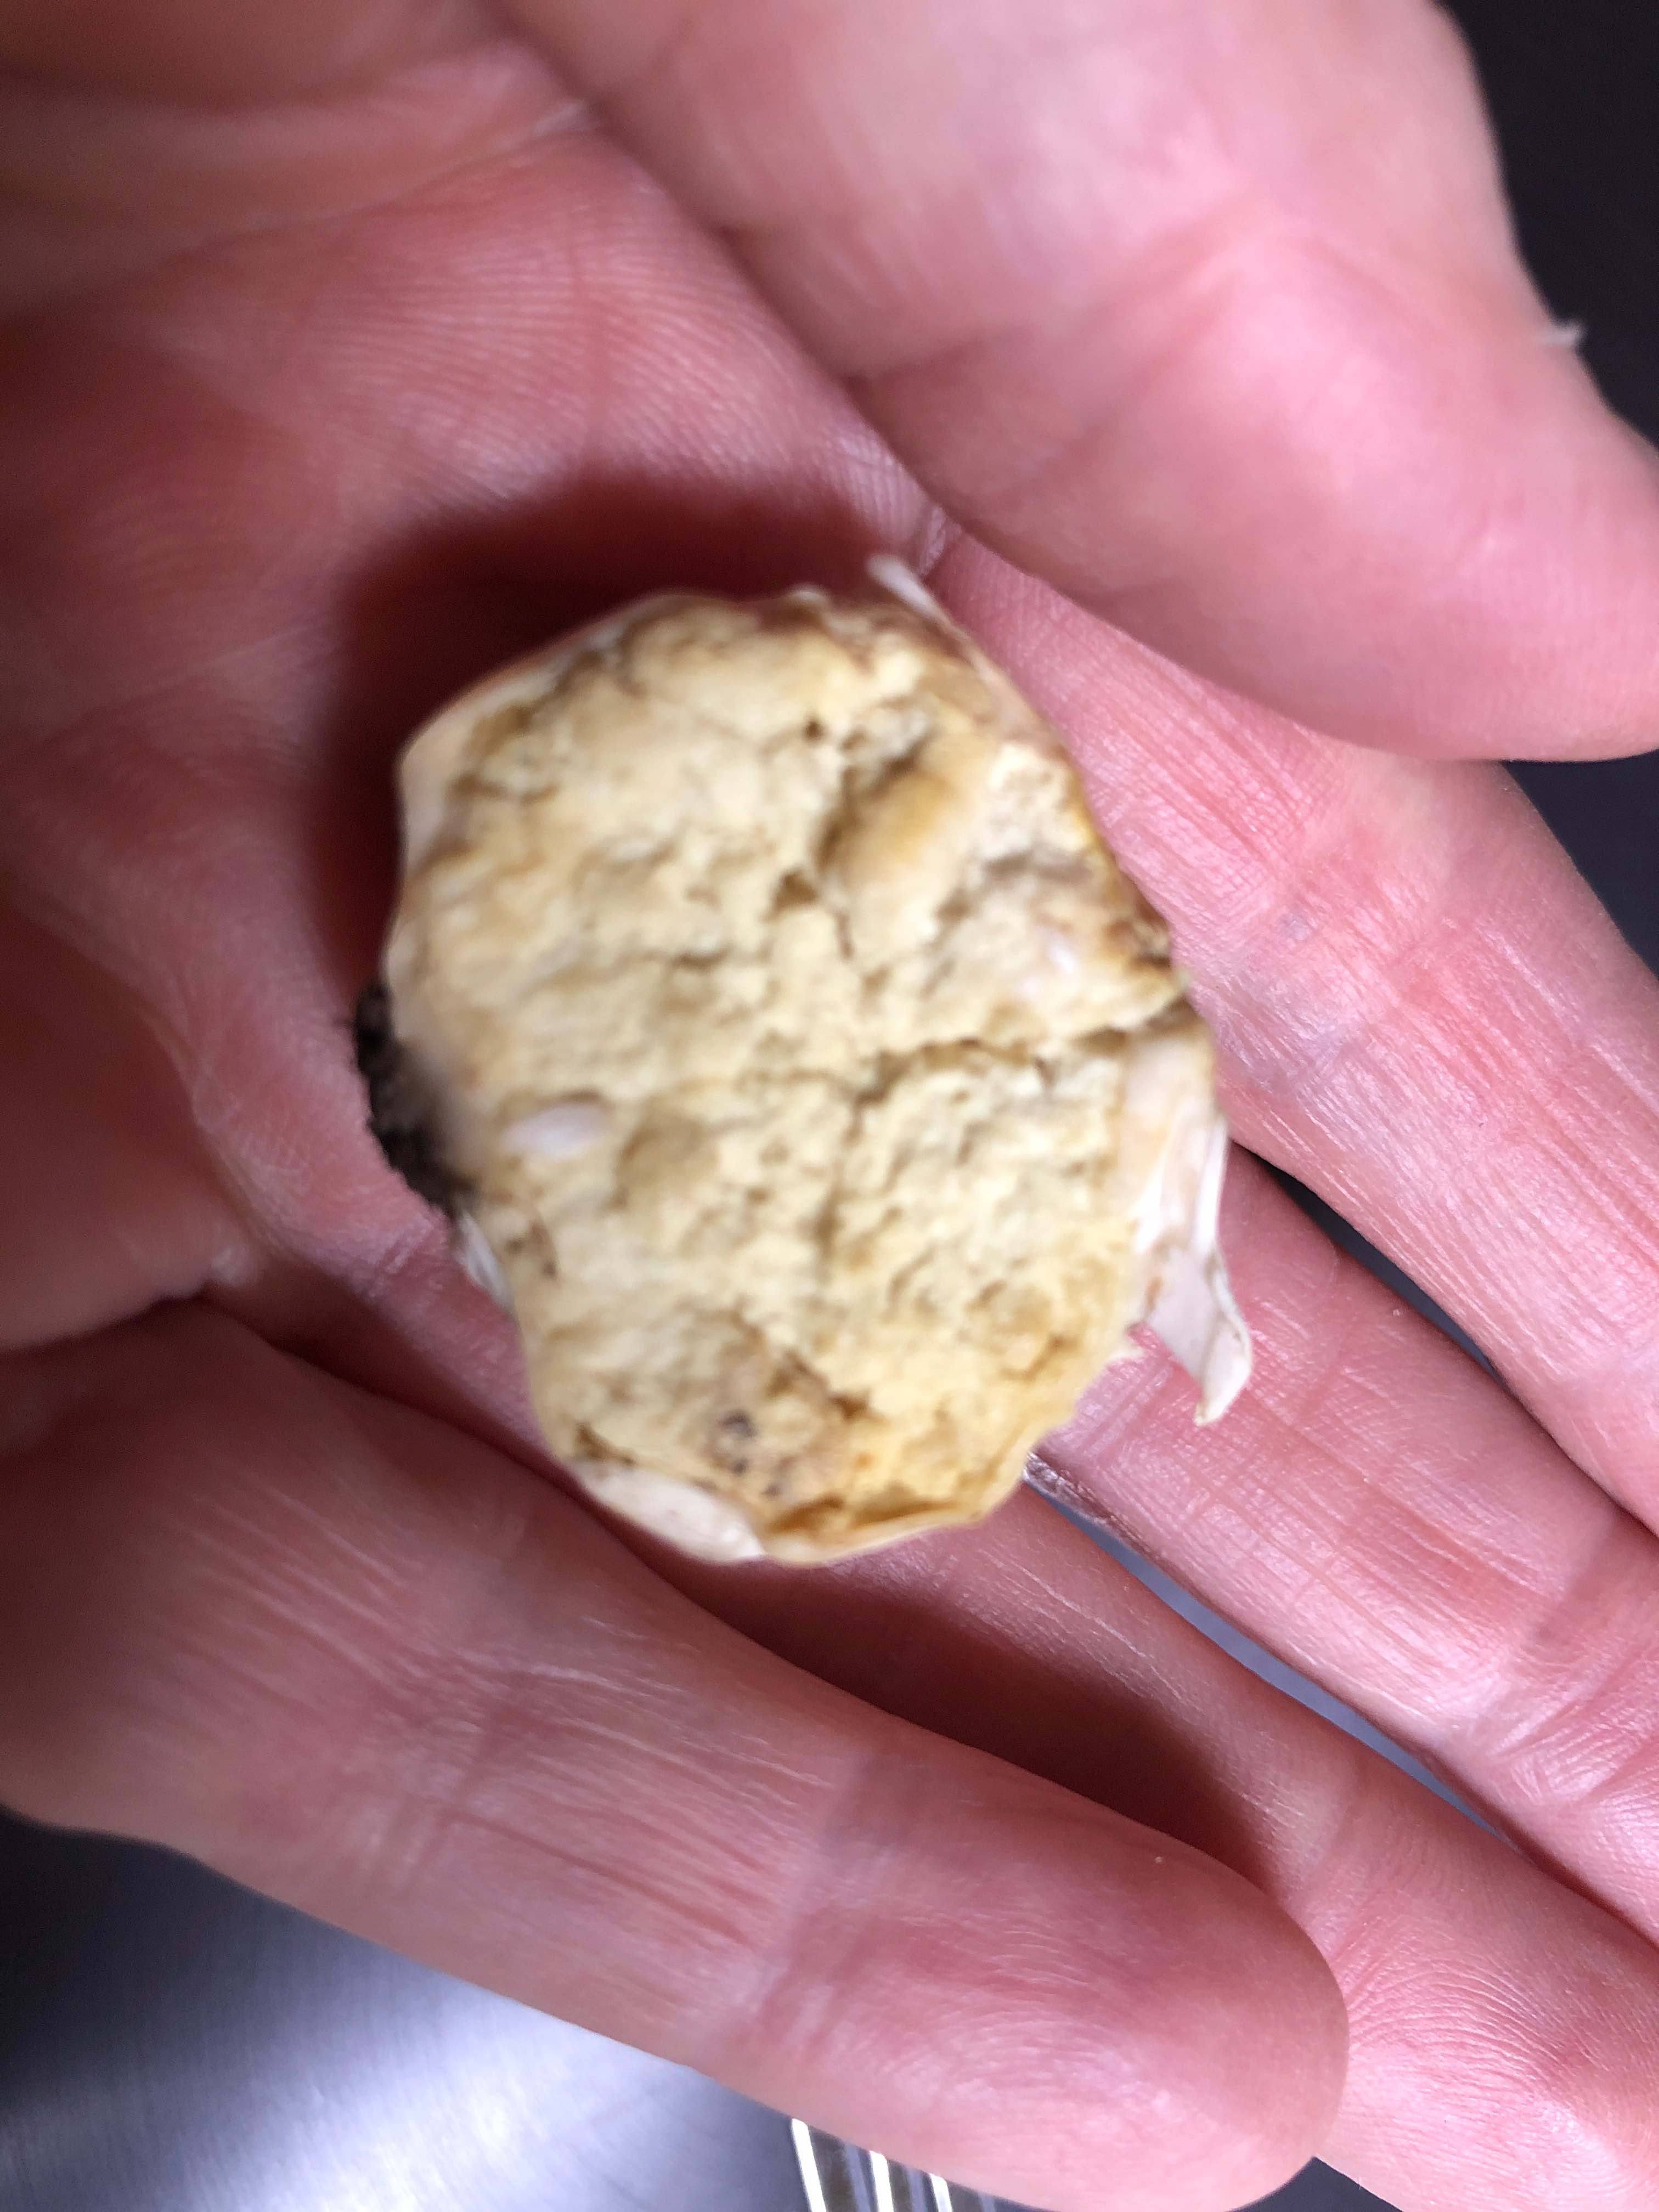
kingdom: Fungi
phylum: Basidiomycota
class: Agaricomycetes
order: Agaricales
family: Lycoperdaceae
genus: Bovista
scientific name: Bovista
